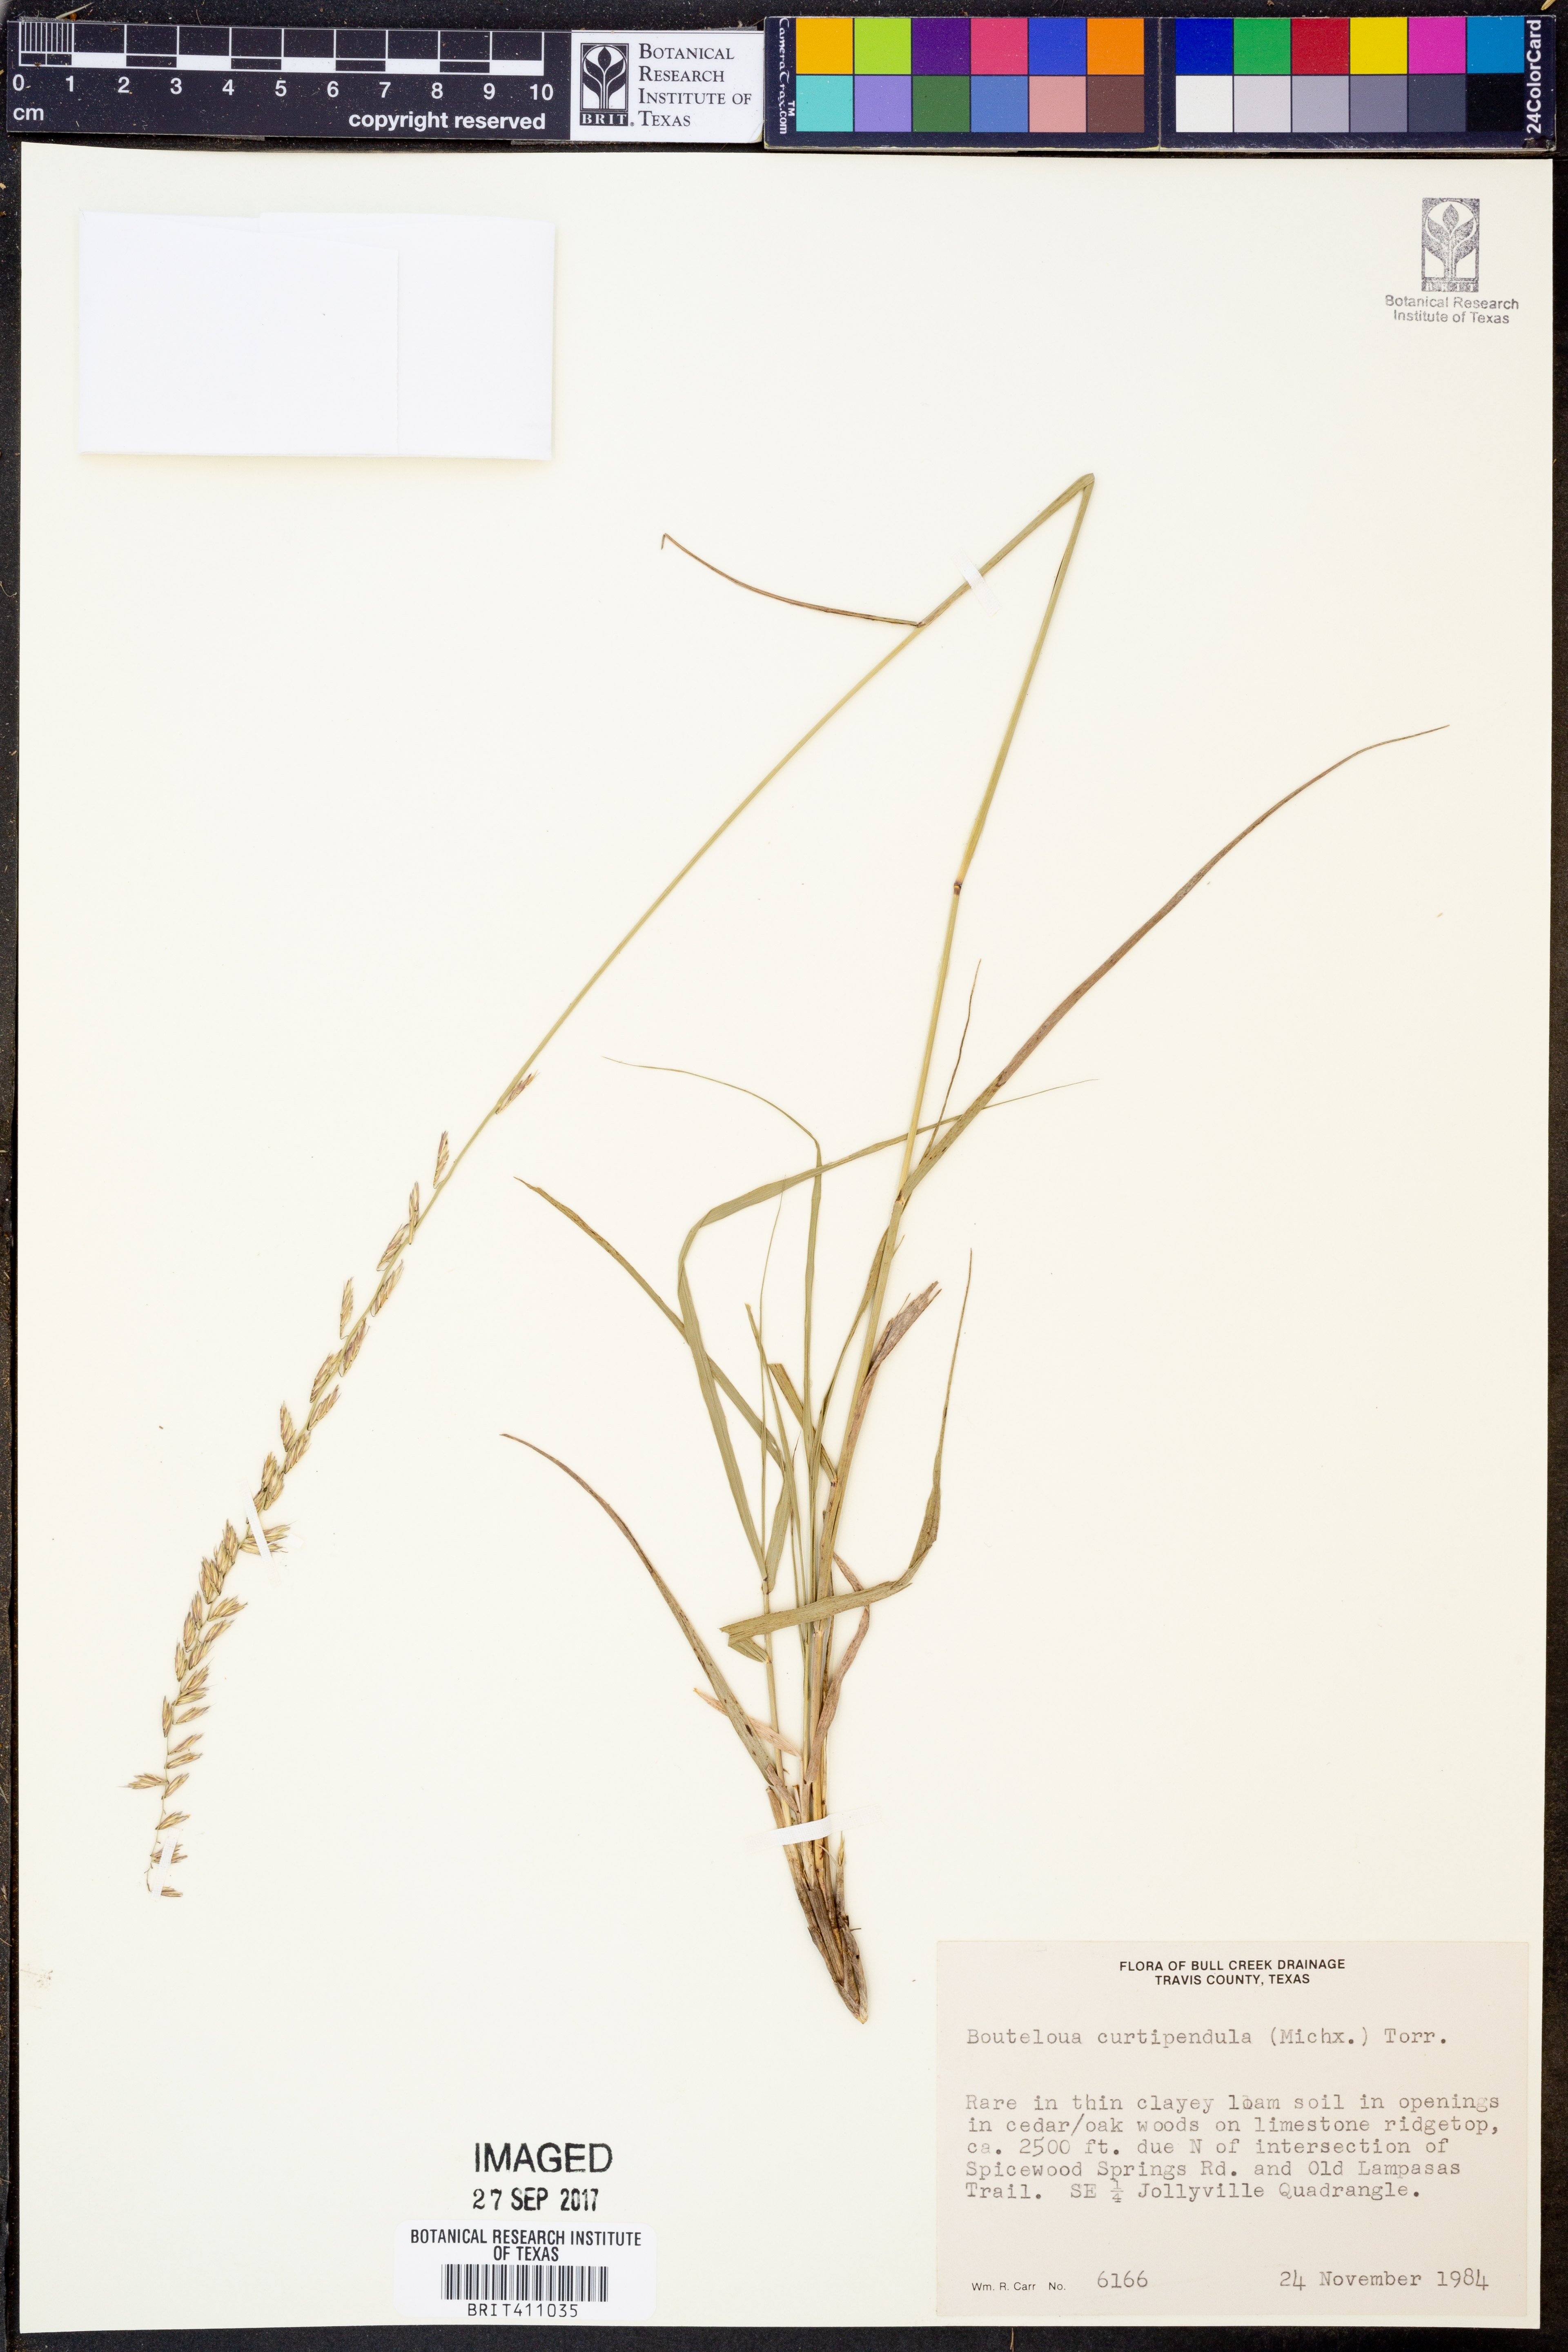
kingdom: Plantae
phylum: Tracheophyta
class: Liliopsida
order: Poales
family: Poaceae
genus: Bouteloua
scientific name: Bouteloua curtipendula
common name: Side-oats grama
